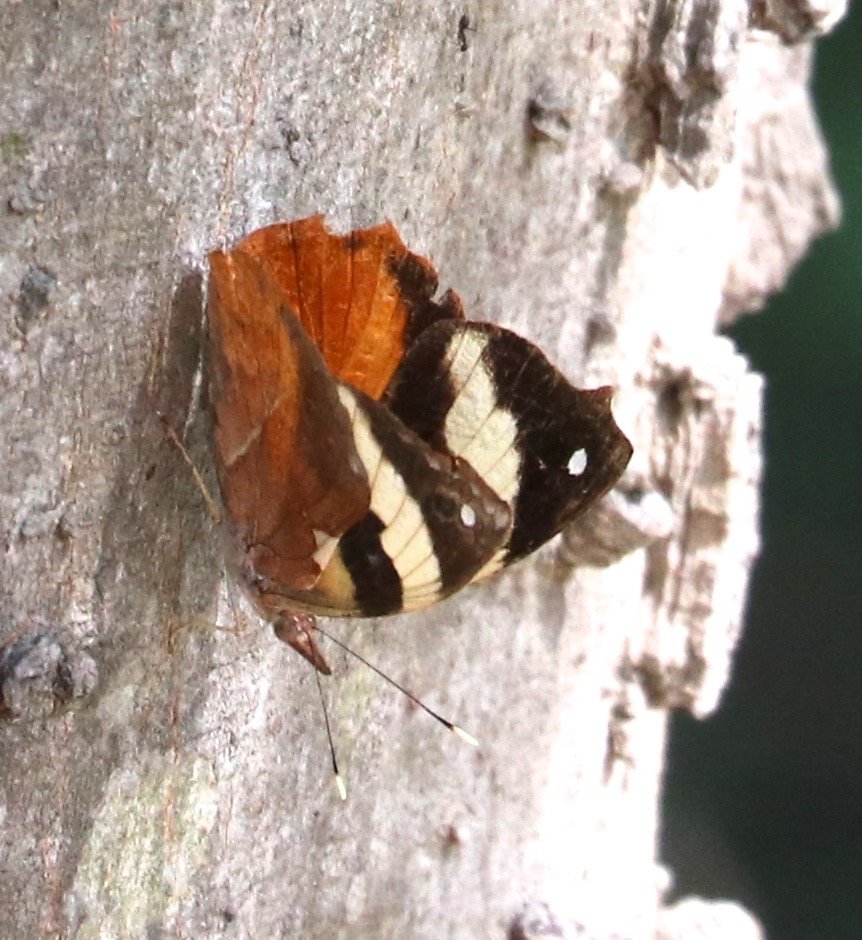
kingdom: Animalia
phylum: Arthropoda
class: Insecta
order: Lepidoptera
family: Nymphalidae
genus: Epiphile
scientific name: Epiphile adrasta
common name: Common Banner
